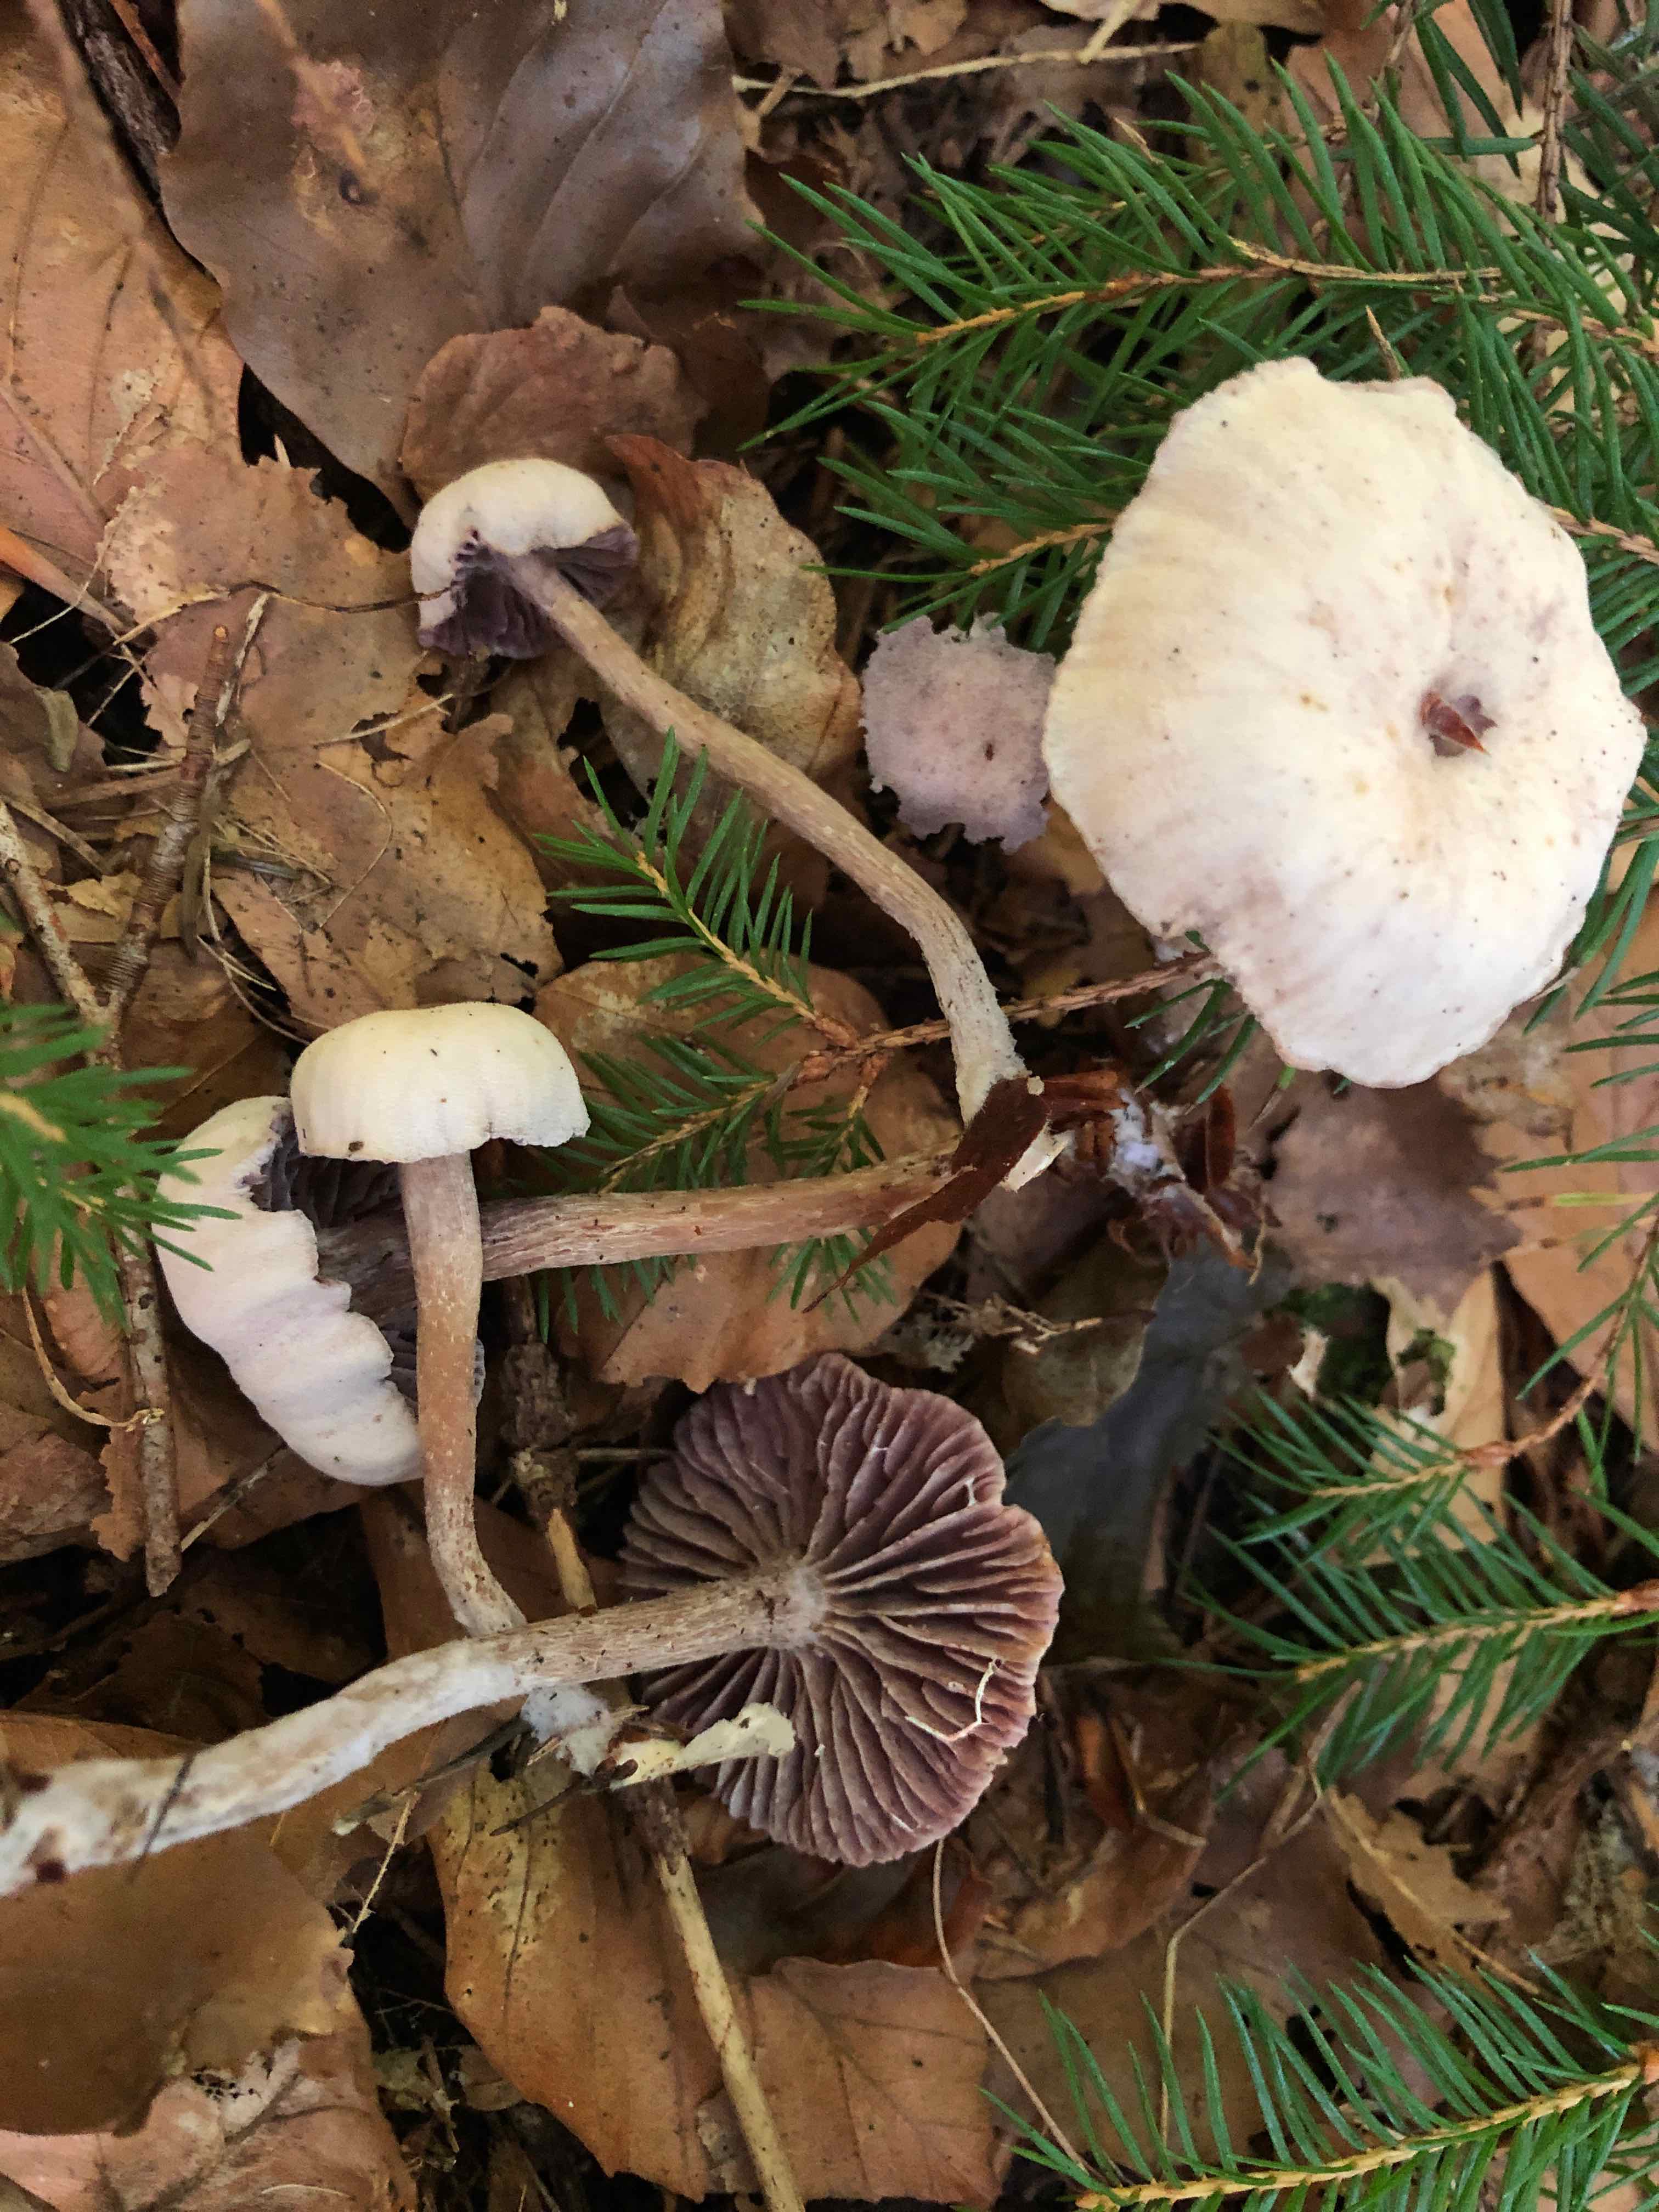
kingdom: Fungi
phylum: Basidiomycota
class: Agaricomycetes
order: Agaricales
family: Hydnangiaceae
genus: Laccaria
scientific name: Laccaria amethystina
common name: violet ametysthat
